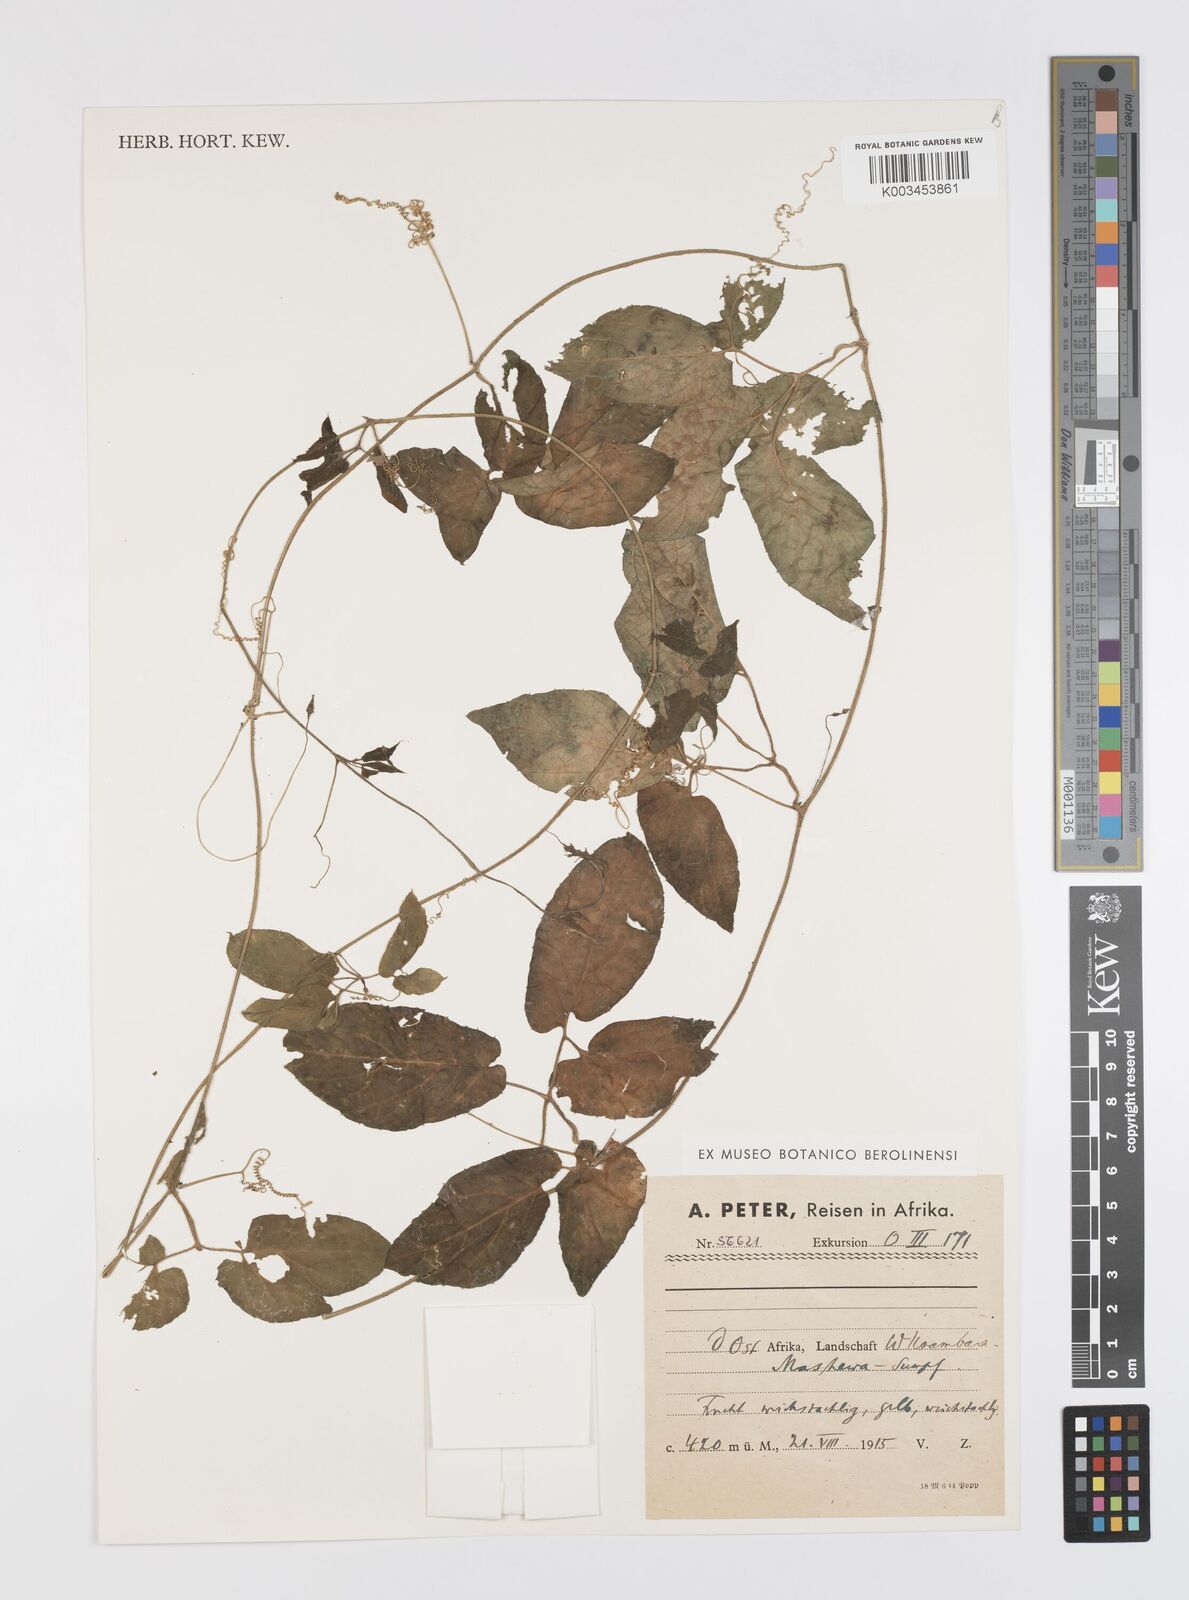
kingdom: Plantae
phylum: Tracheophyta
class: Magnoliopsida
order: Cucurbitales
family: Cucurbitaceae
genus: Momordica
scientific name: Momordica anigosantha
